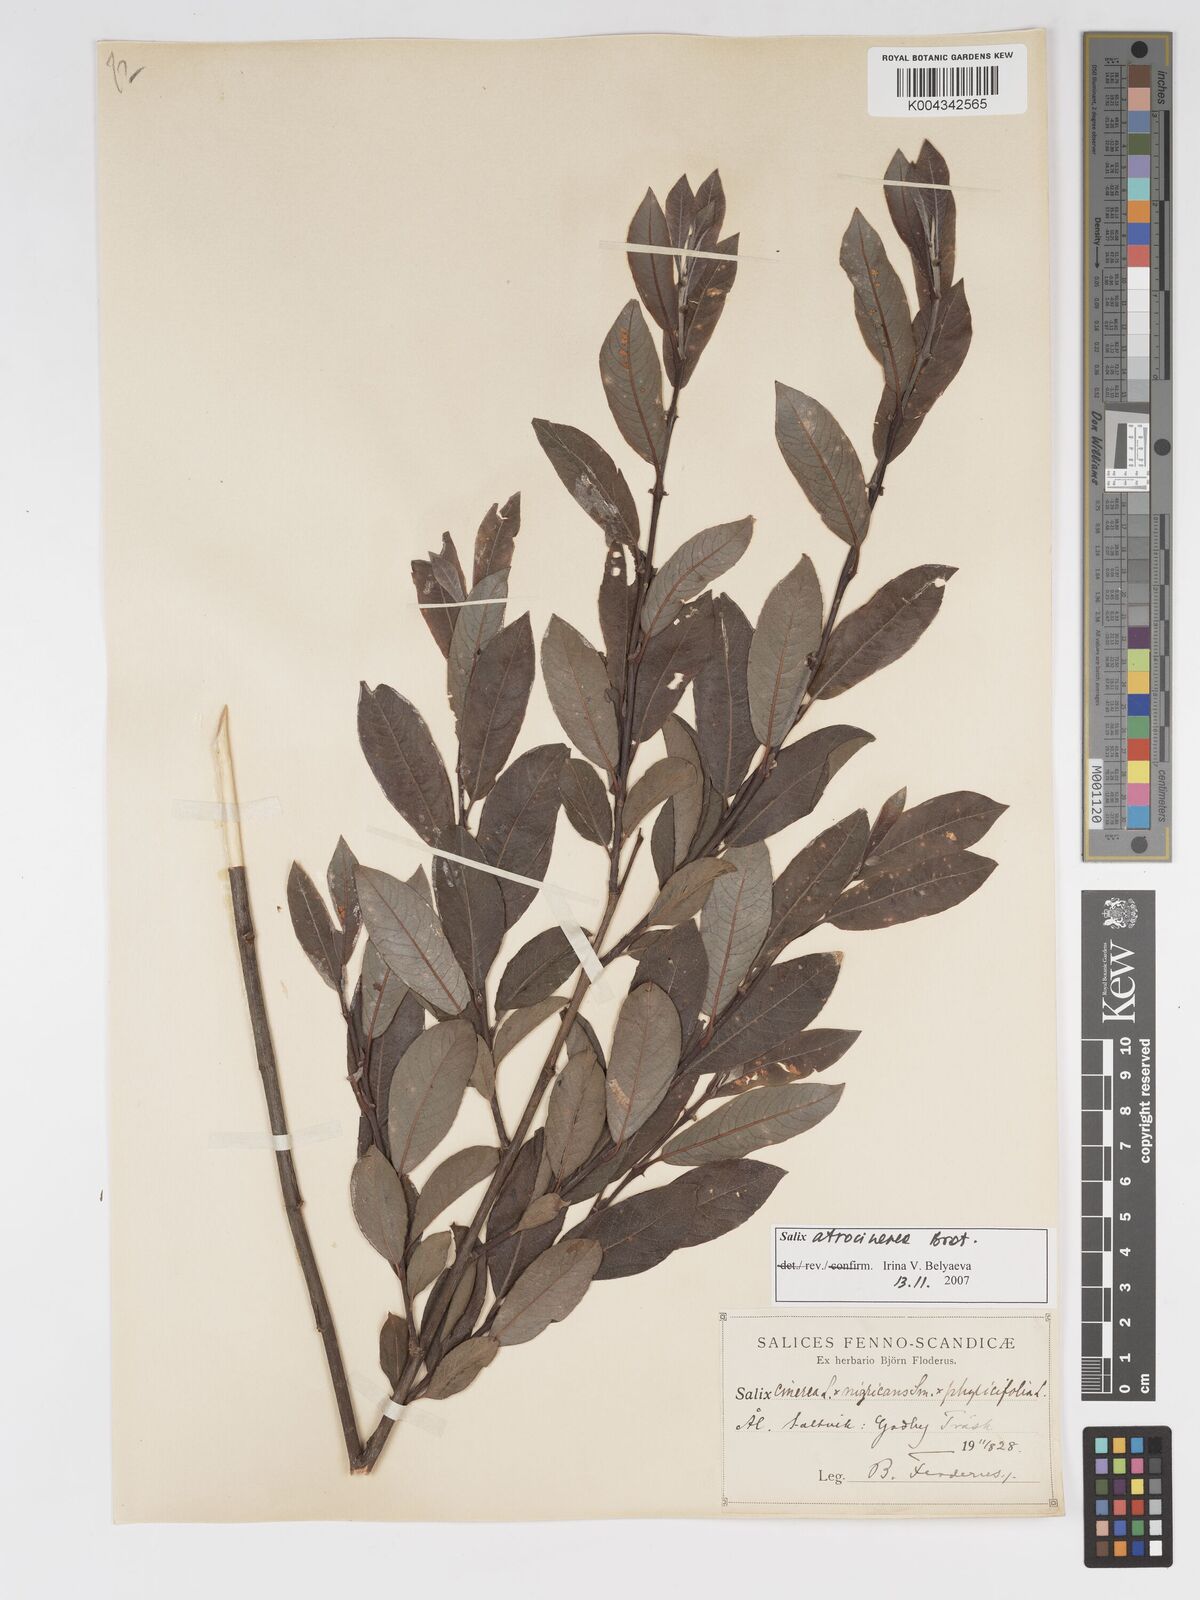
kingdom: Plantae
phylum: Tracheophyta
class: Magnoliopsida
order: Malpighiales
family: Salicaceae
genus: Salix
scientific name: Salix cinerea
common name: Common sallow
